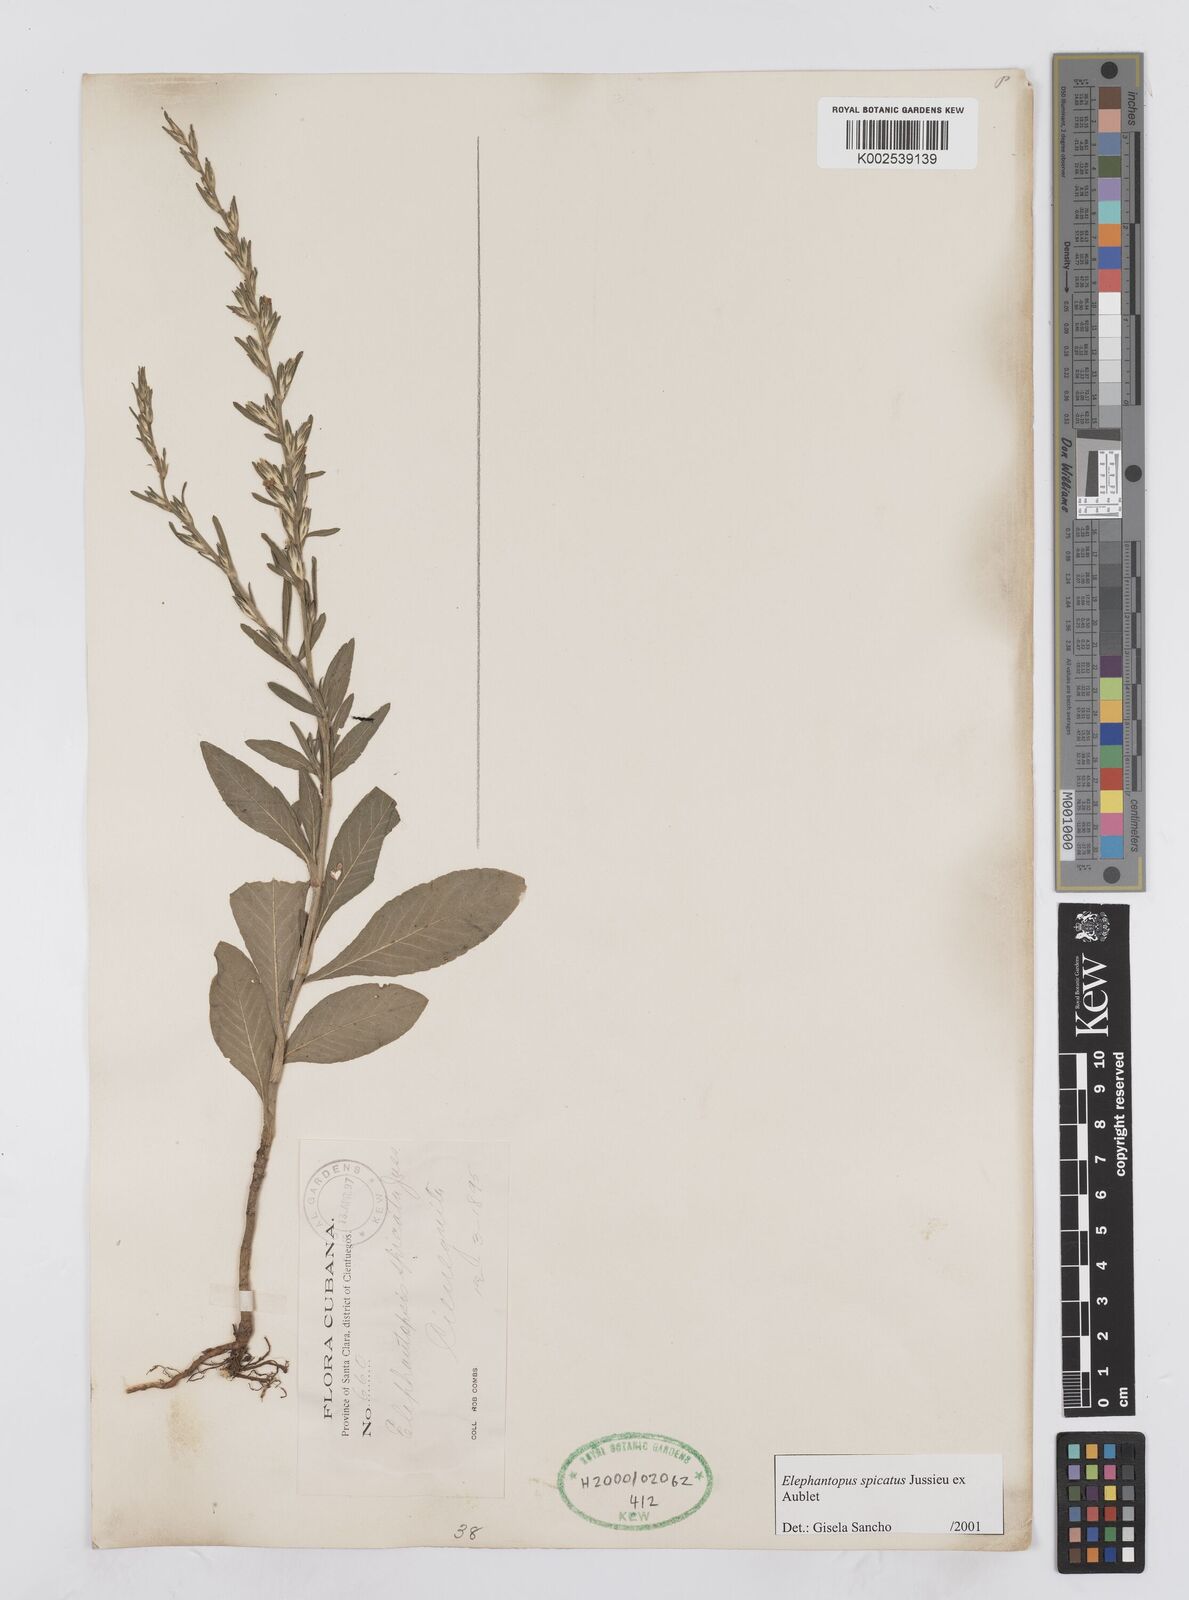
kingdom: Plantae
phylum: Tracheophyta
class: Magnoliopsida
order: Asterales
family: Asteraceae
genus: Pseudelephantopus
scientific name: Pseudelephantopus spicatus
